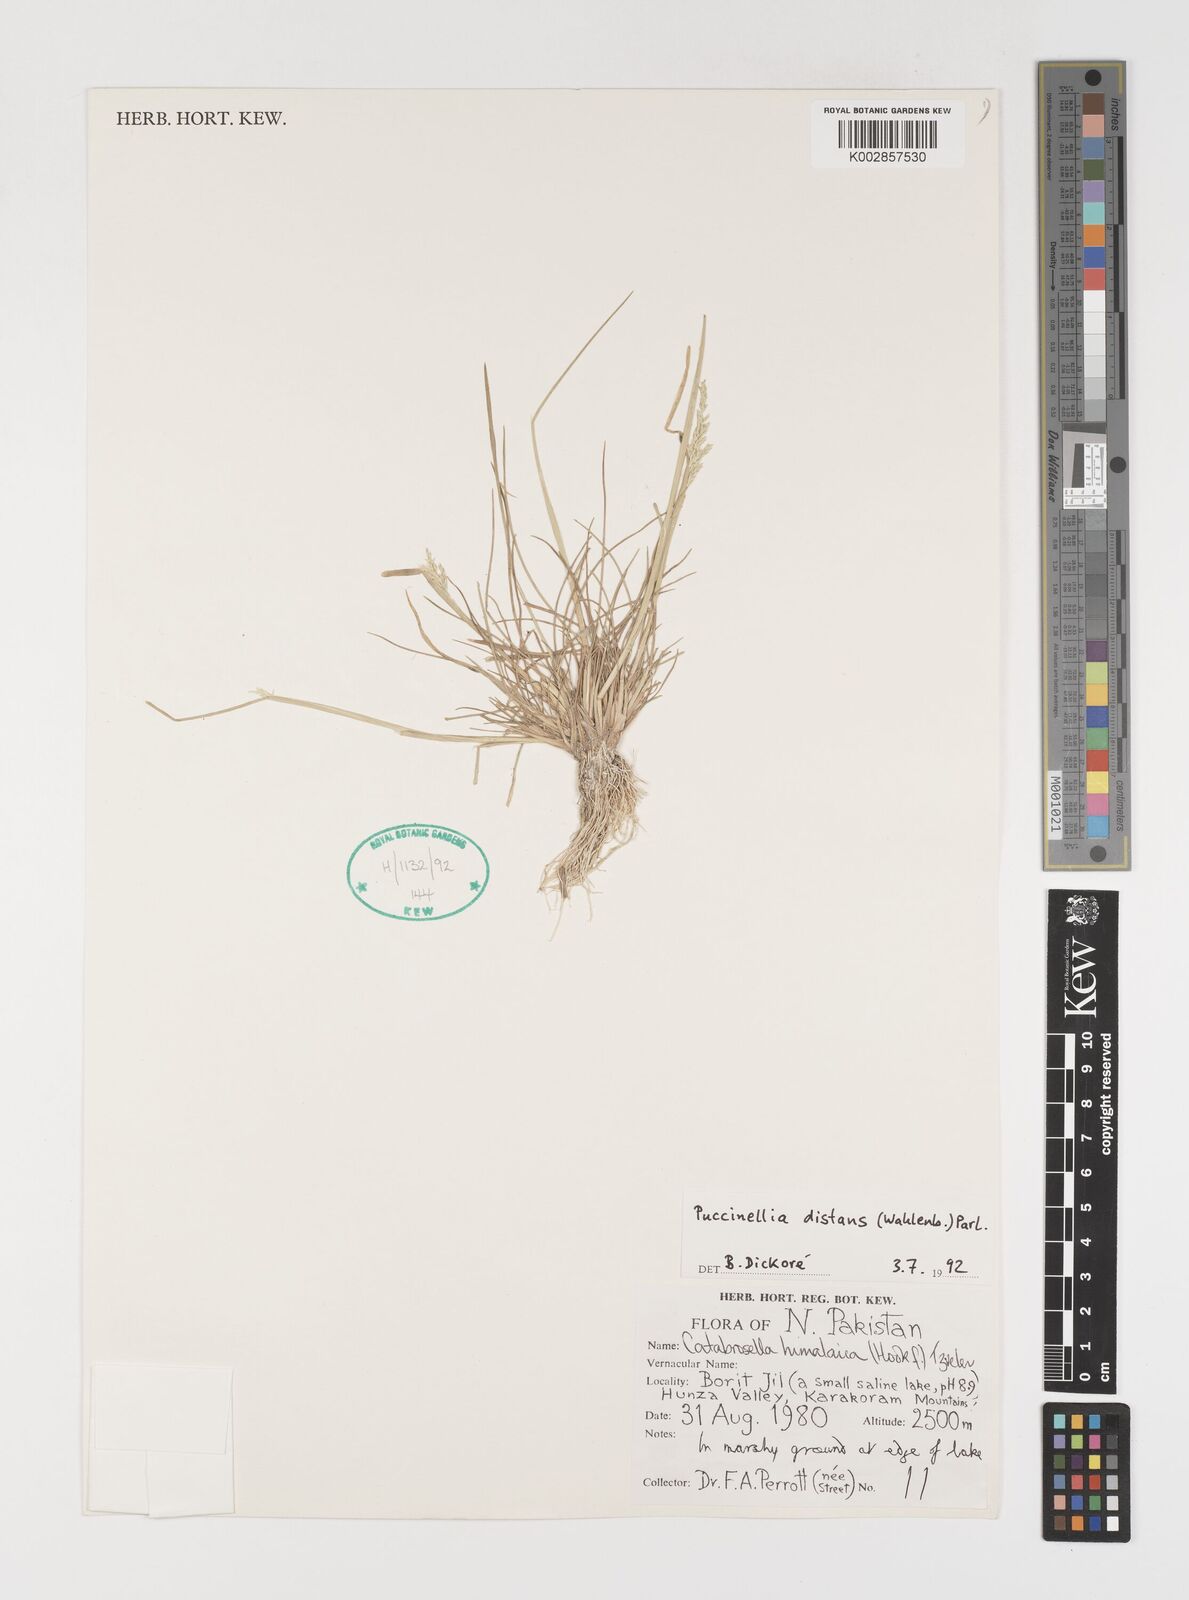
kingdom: Plantae
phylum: Tracheophyta
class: Liliopsida
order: Poales
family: Poaceae
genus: Puccinellia
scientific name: Puccinellia distans
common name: Weeping alkaligrass
